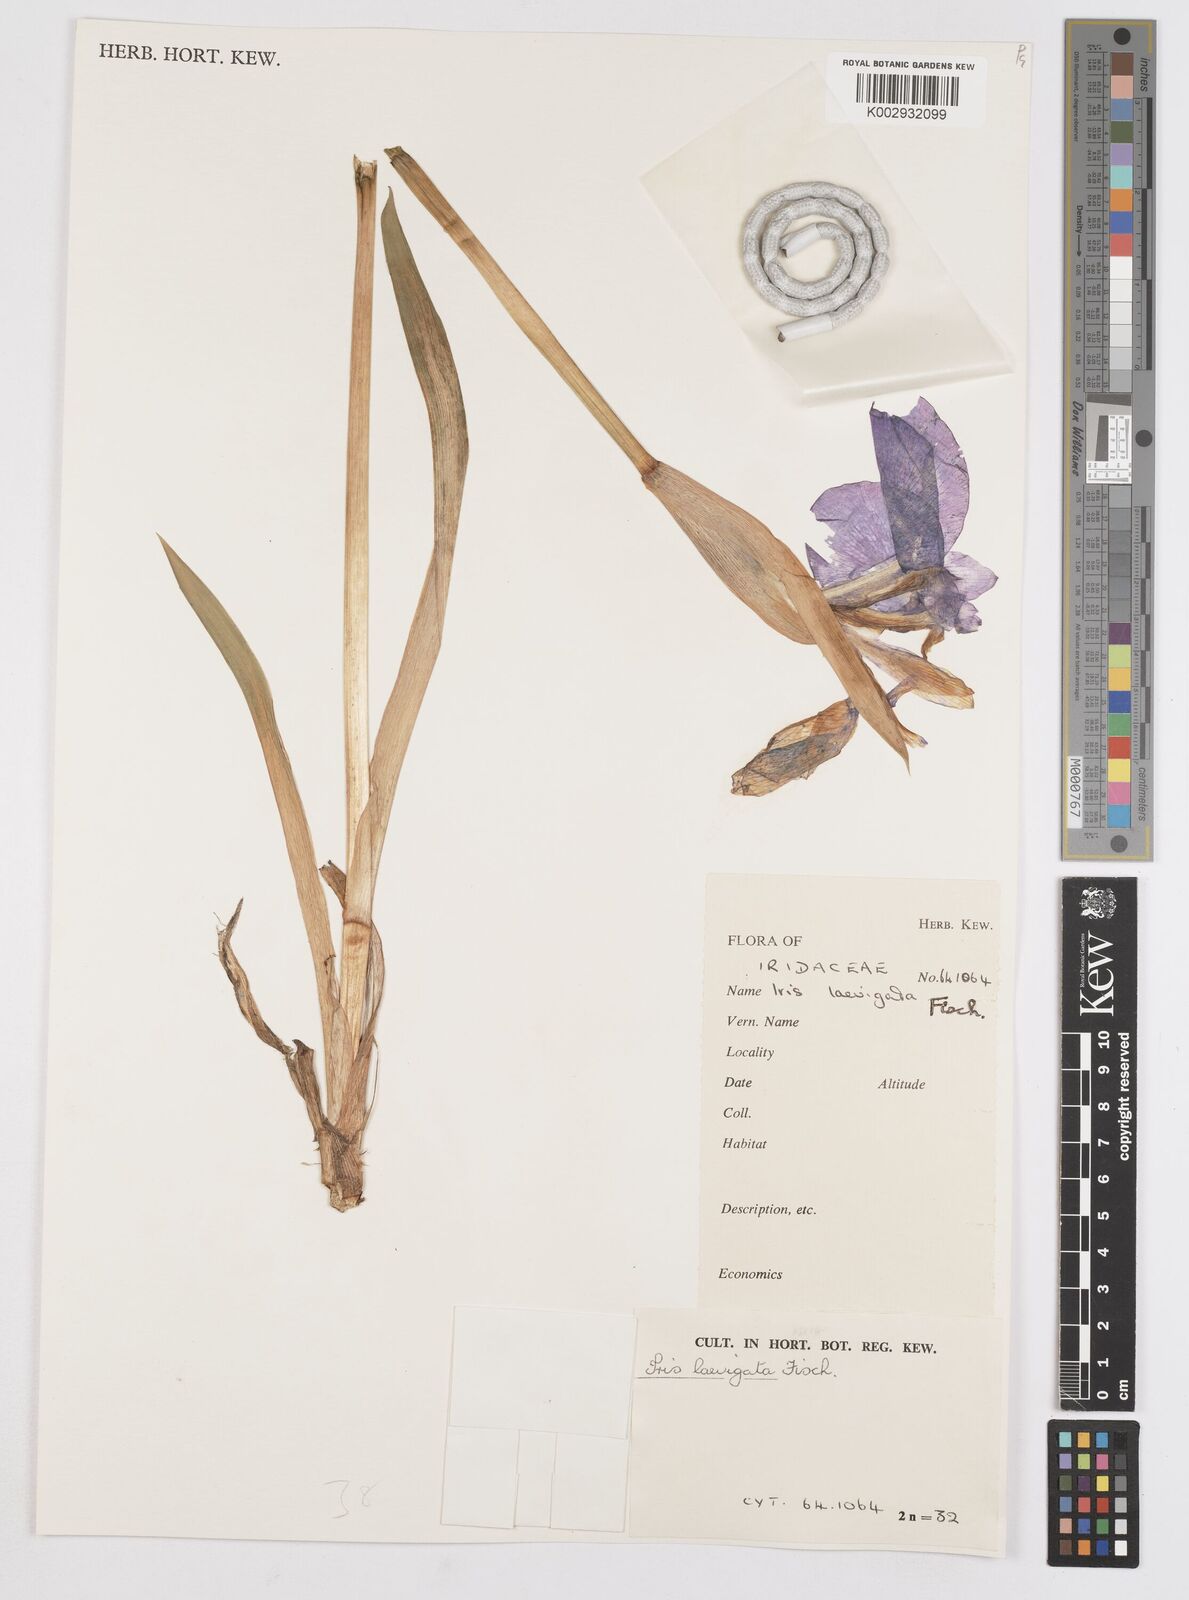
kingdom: Plantae
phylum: Tracheophyta
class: Liliopsida
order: Asparagales
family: Iridaceae
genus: Iris
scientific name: Iris laevigata
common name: Japanese iris
